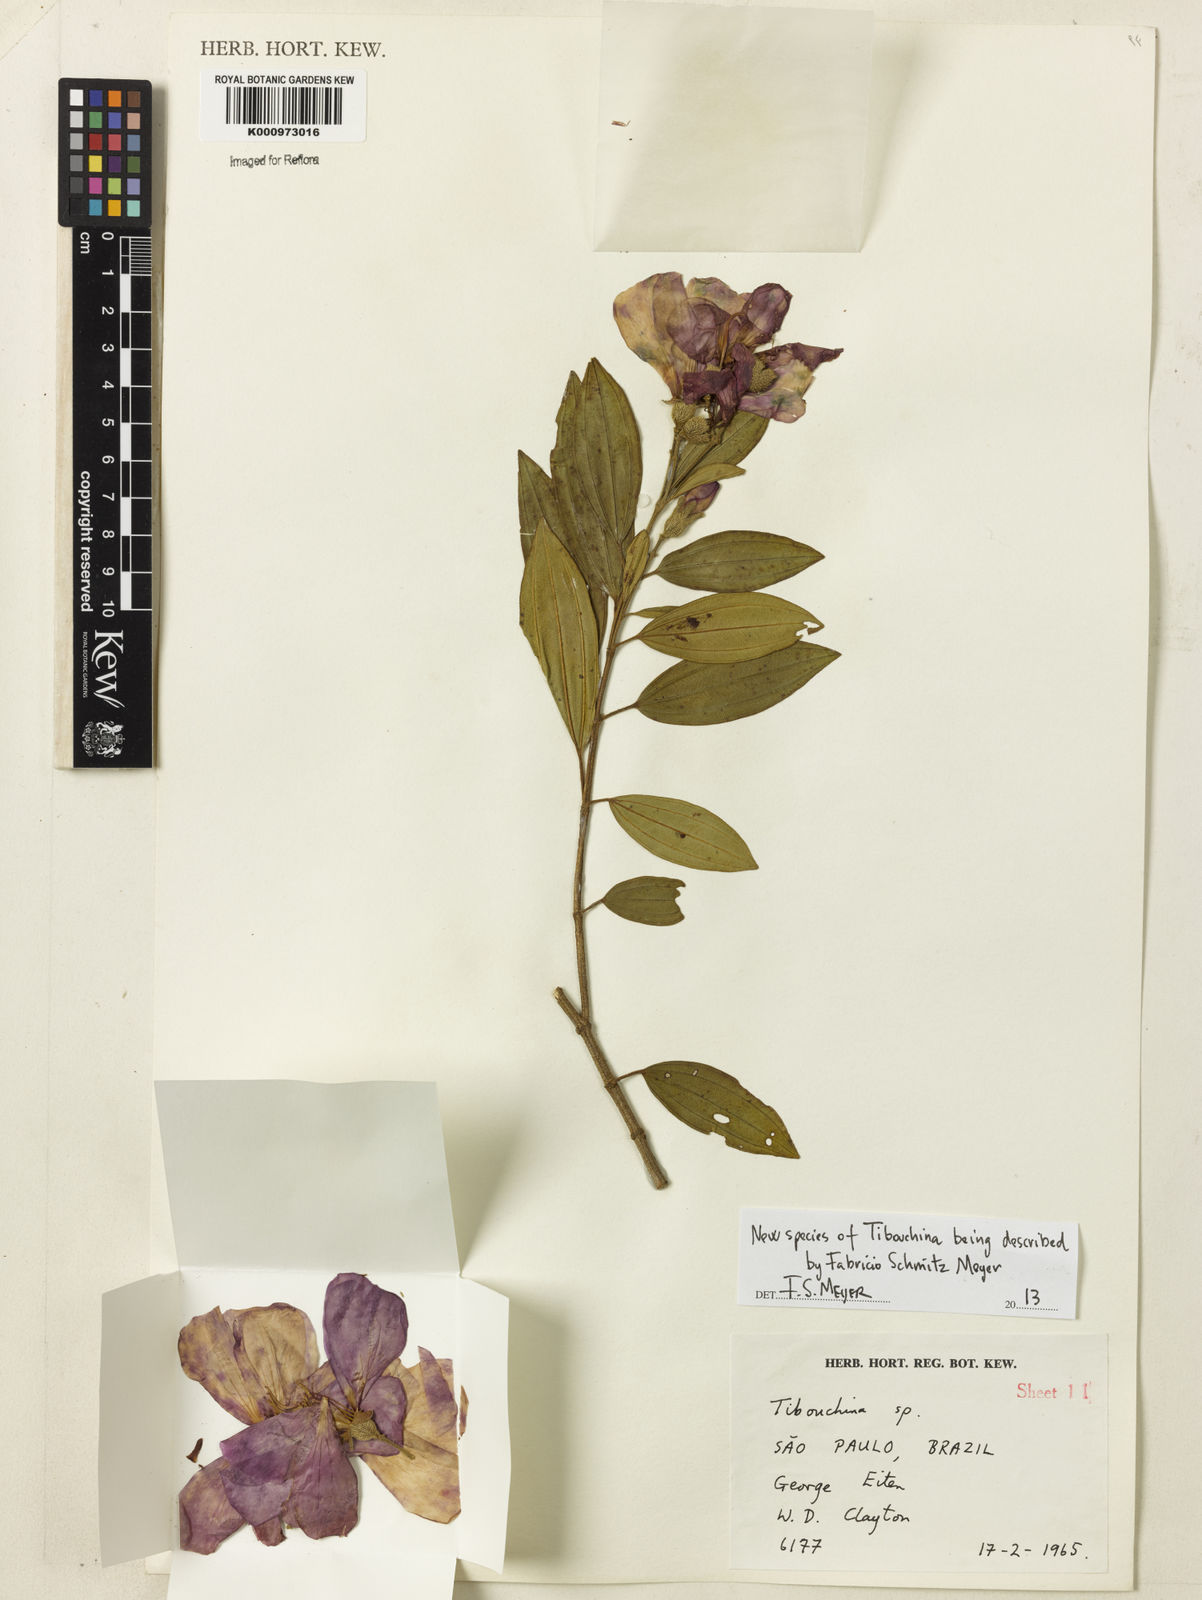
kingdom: Plantae
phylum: Tracheophyta
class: Magnoliopsida
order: Myrtales
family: Melastomataceae
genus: Tibouchina
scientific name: Tibouchina
